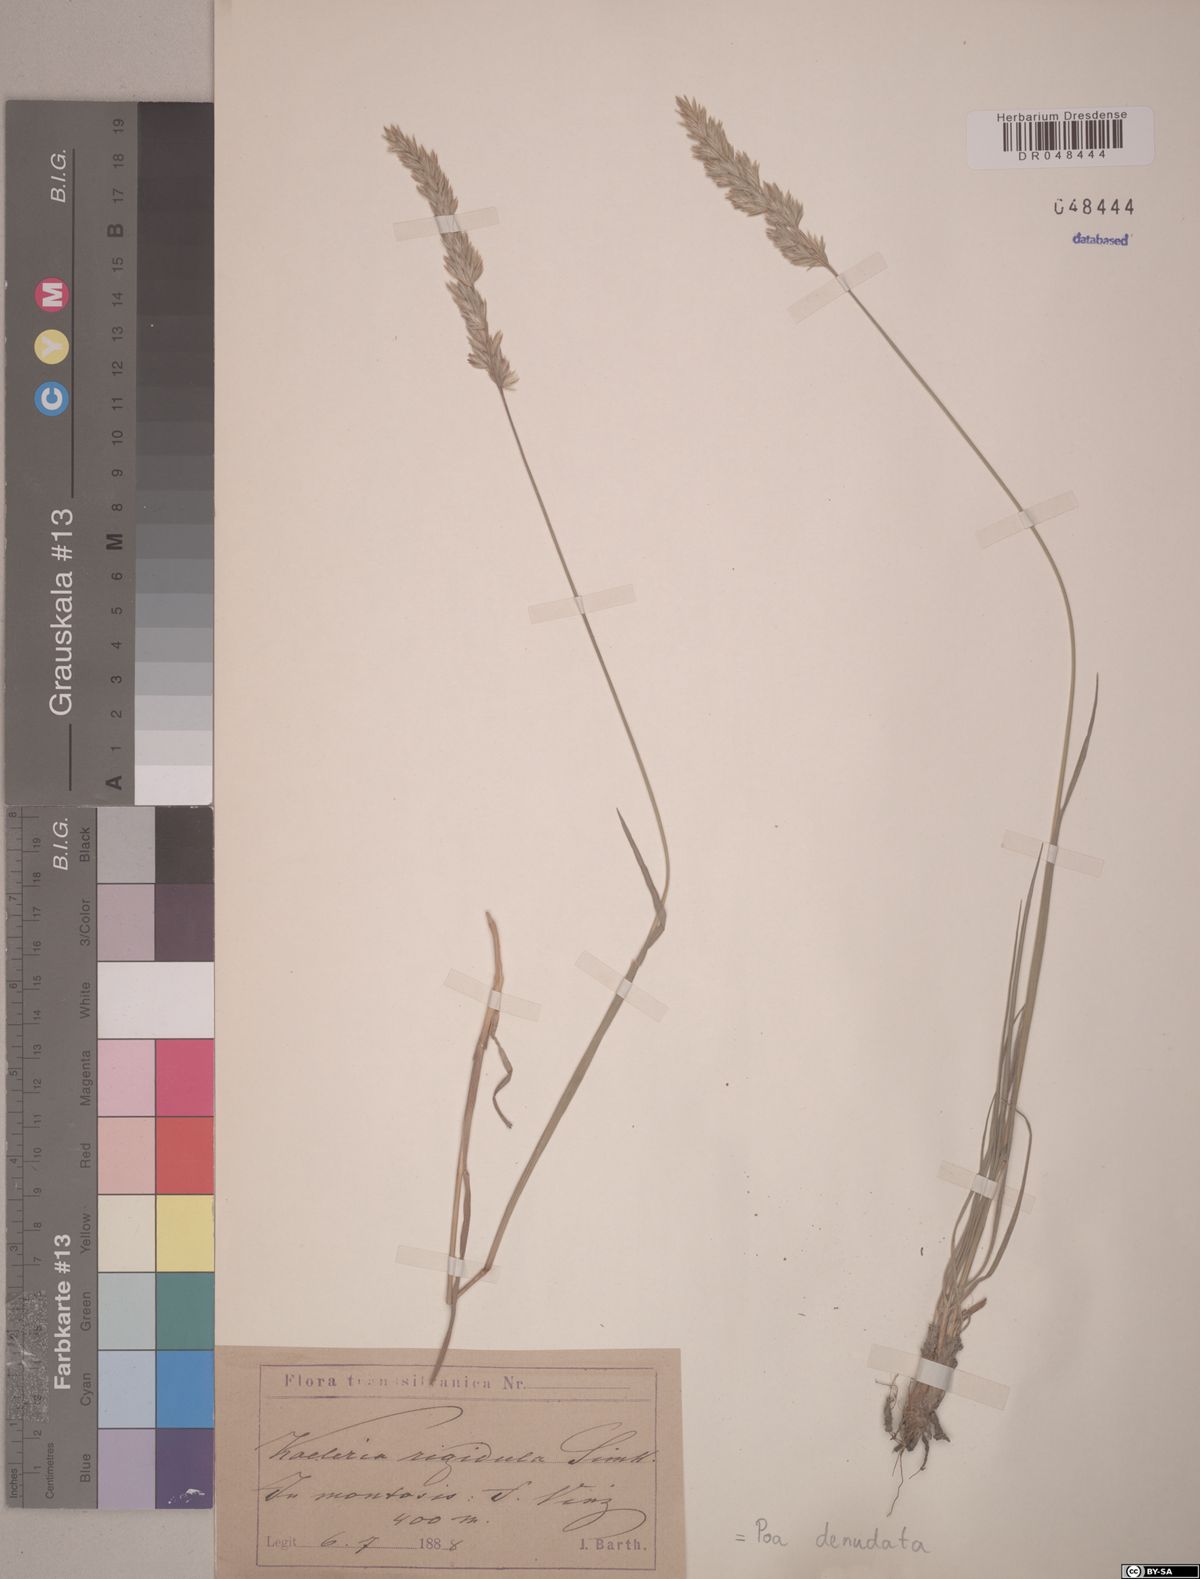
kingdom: Plantae
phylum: Tracheophyta
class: Liliopsida
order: Poales
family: Poaceae
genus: Koeleria
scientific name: Koeleria macrantha
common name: Crested hair-grass
